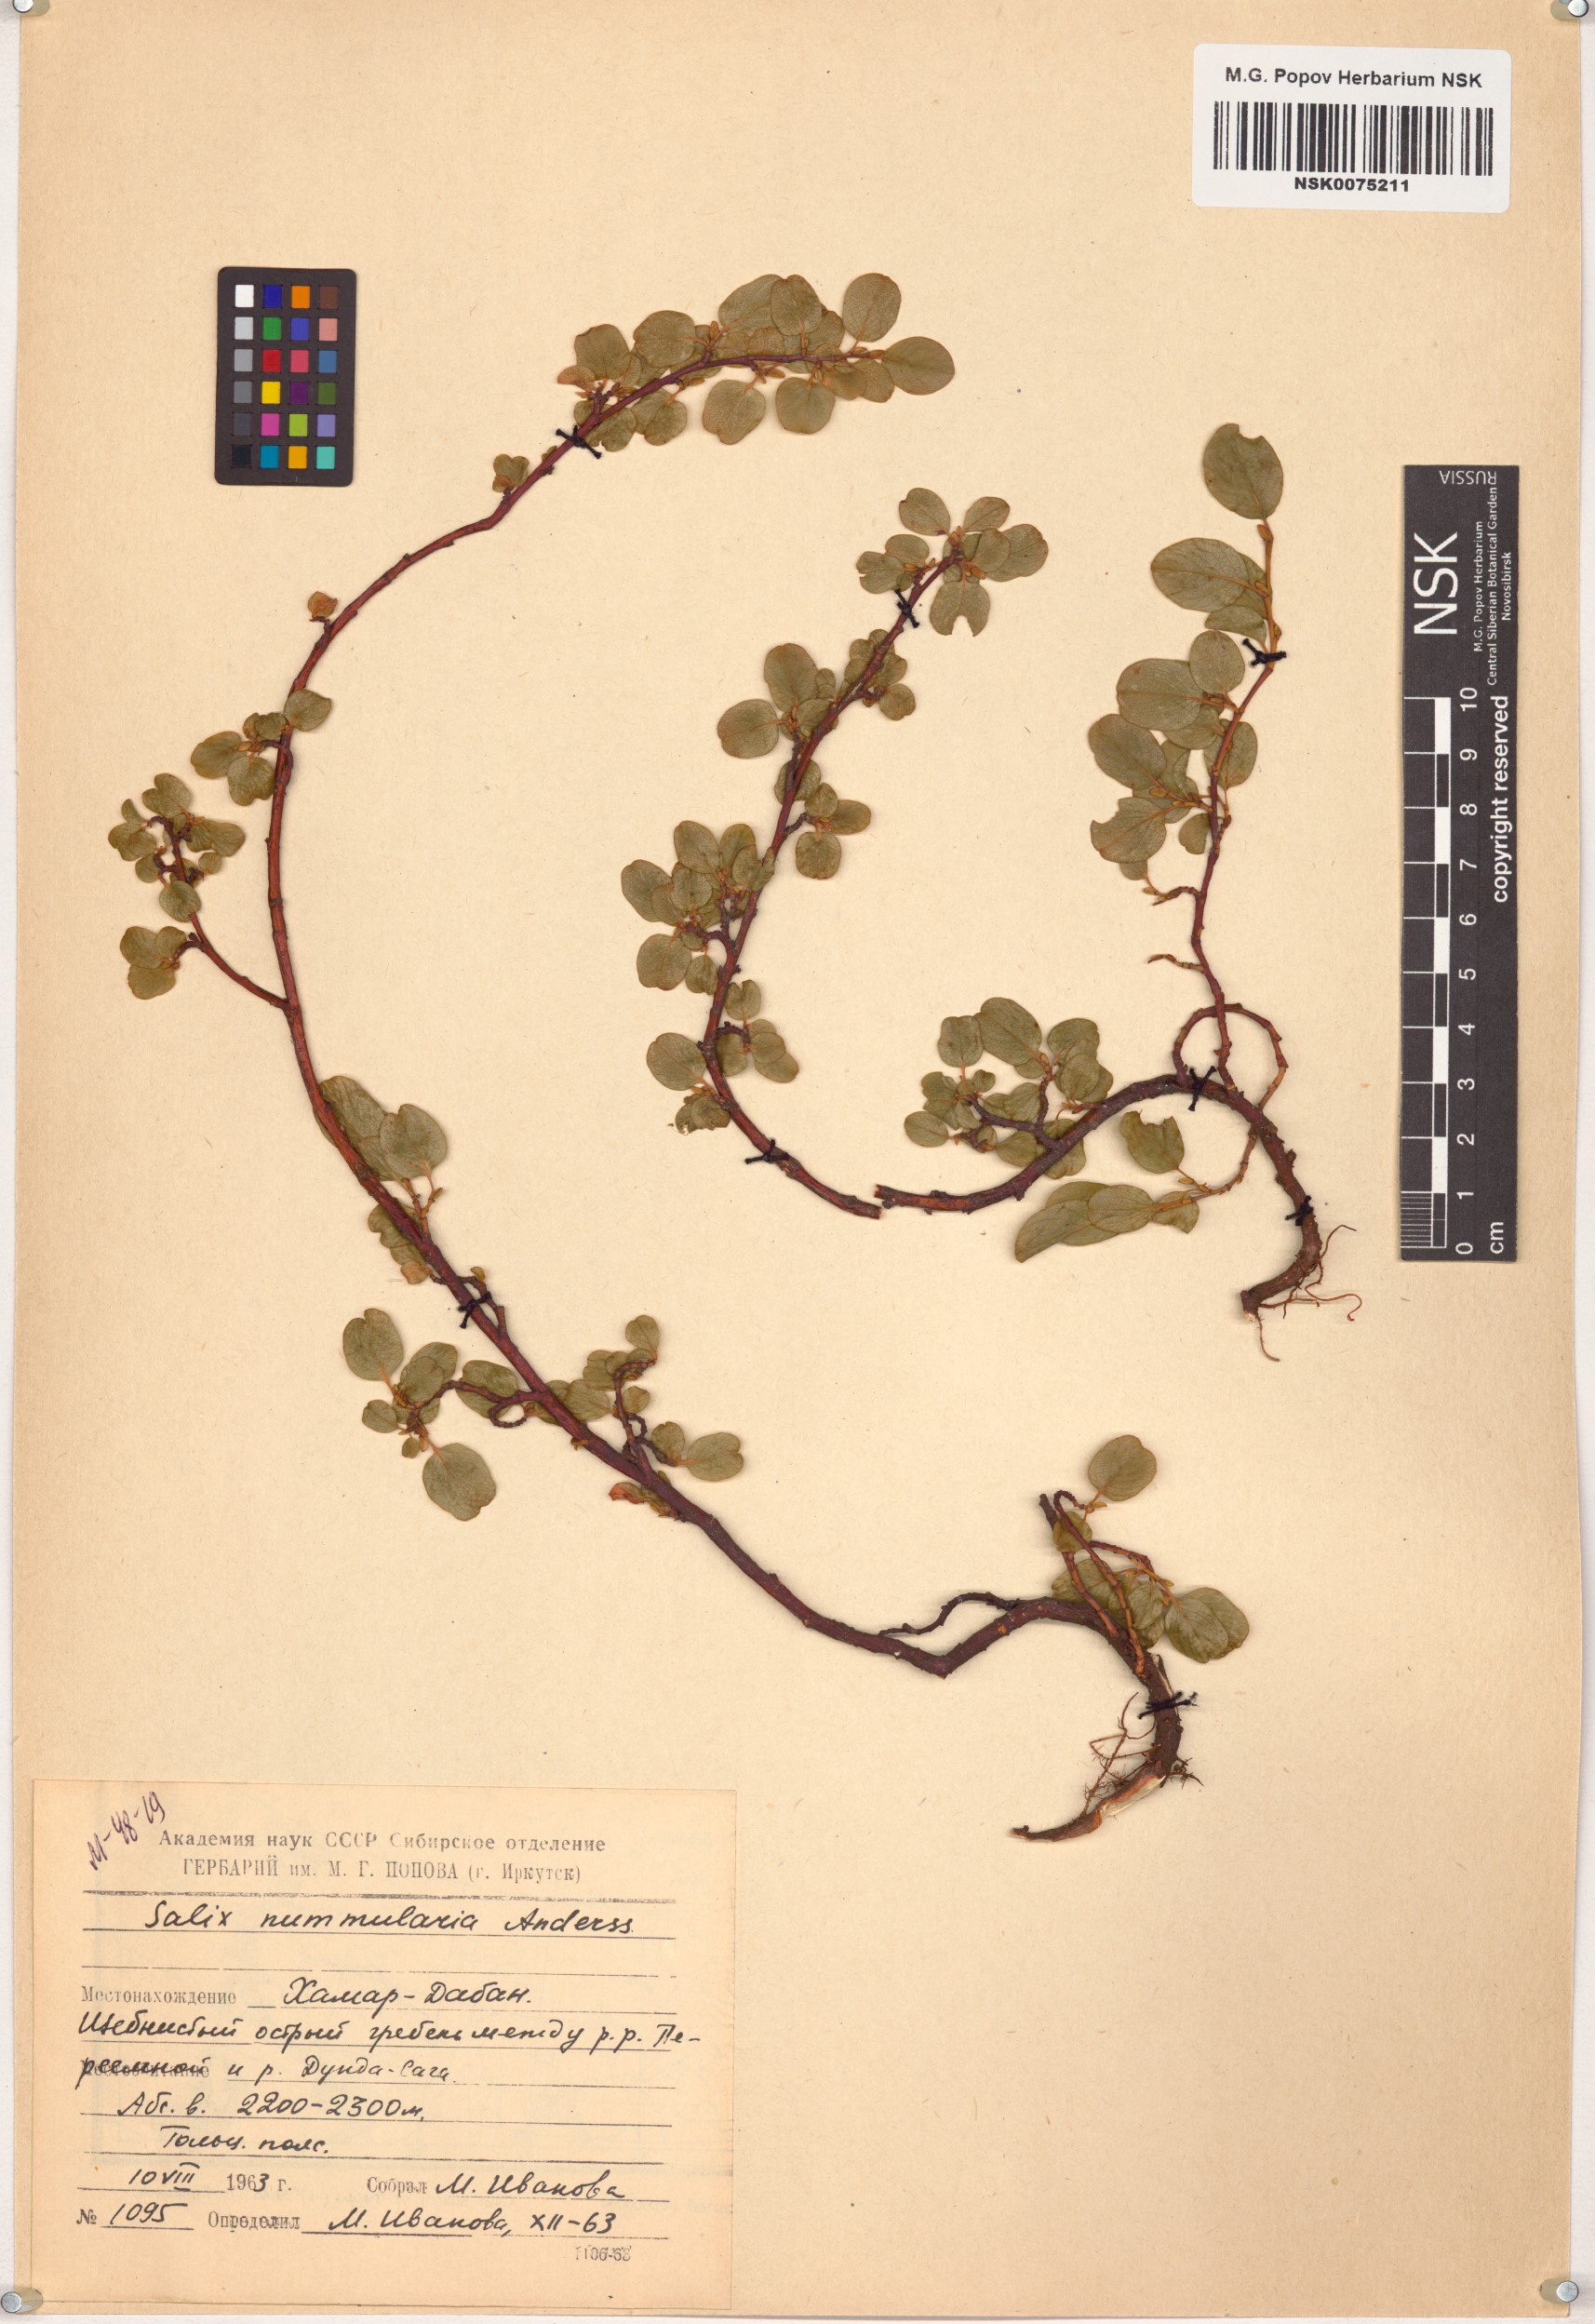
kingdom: Plantae
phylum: Tracheophyta
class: Magnoliopsida
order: Malpighiales
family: Salicaceae
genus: Salix
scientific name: Salix nummularia
